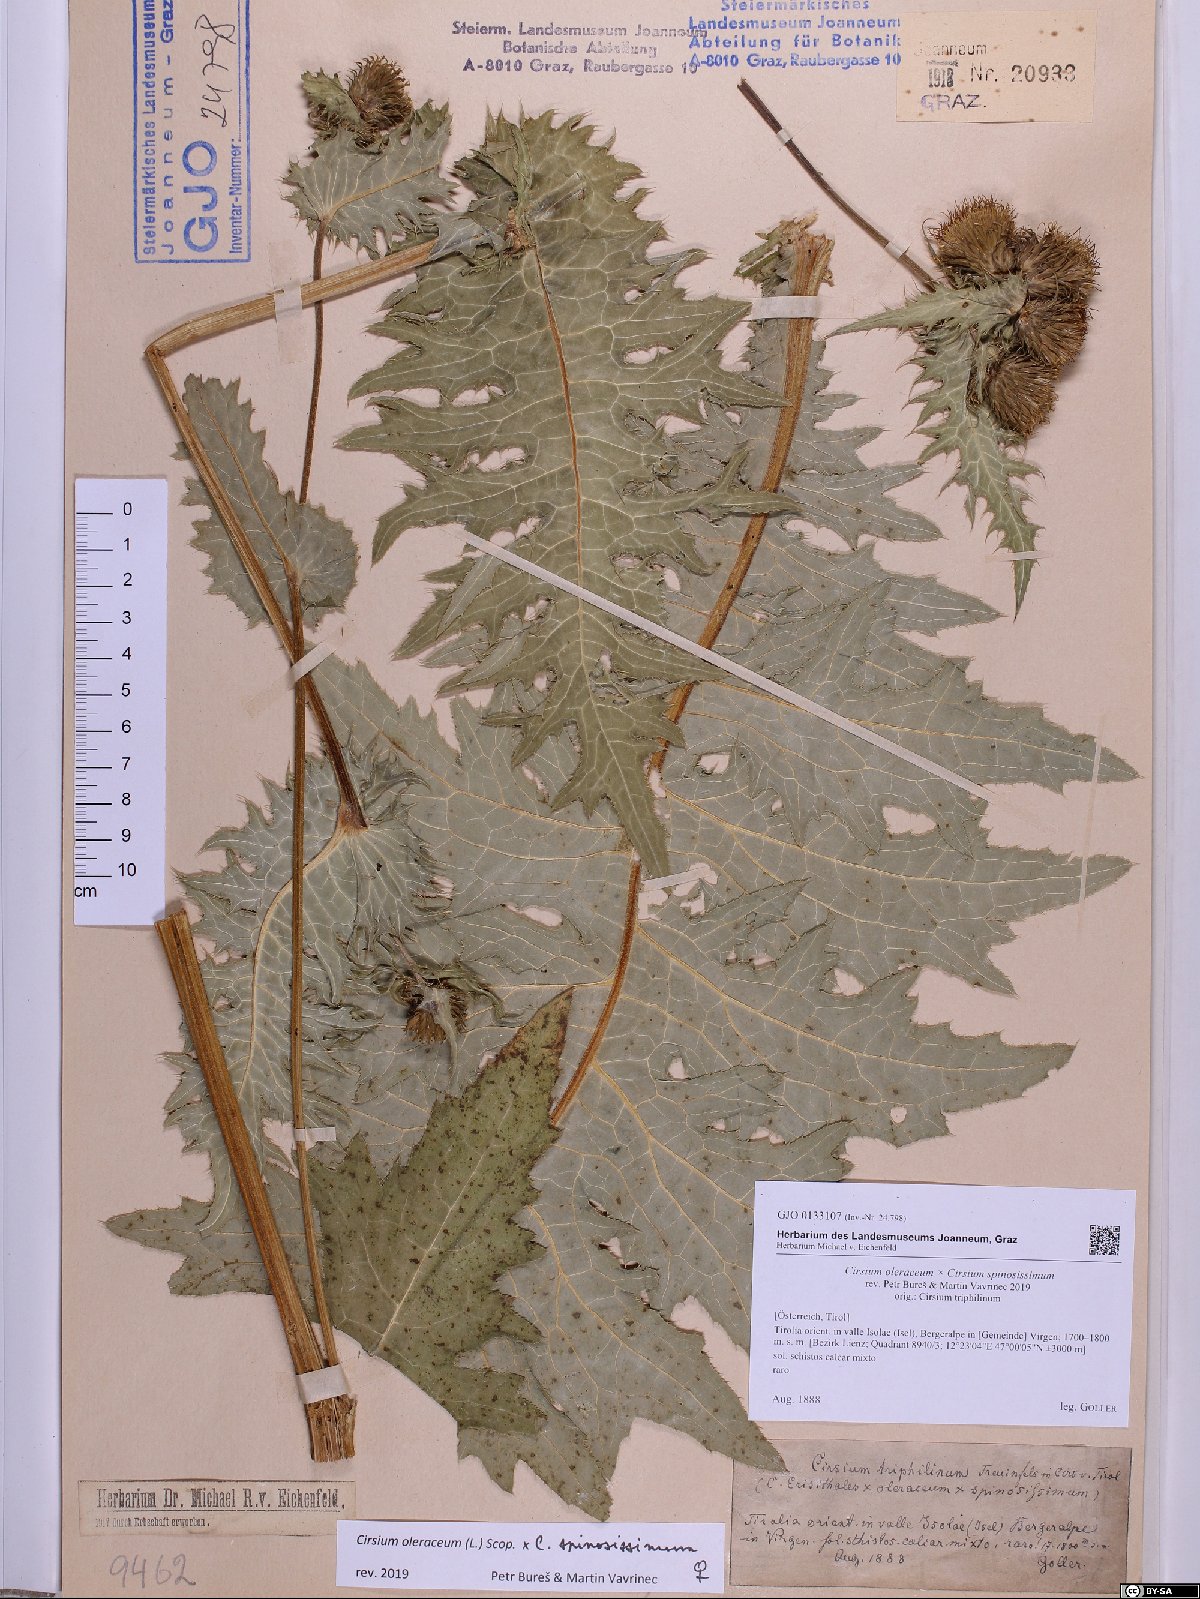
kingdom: Plantae
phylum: Tracheophyta
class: Magnoliopsida
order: Asterales
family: Asteraceae
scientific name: Asteraceae
